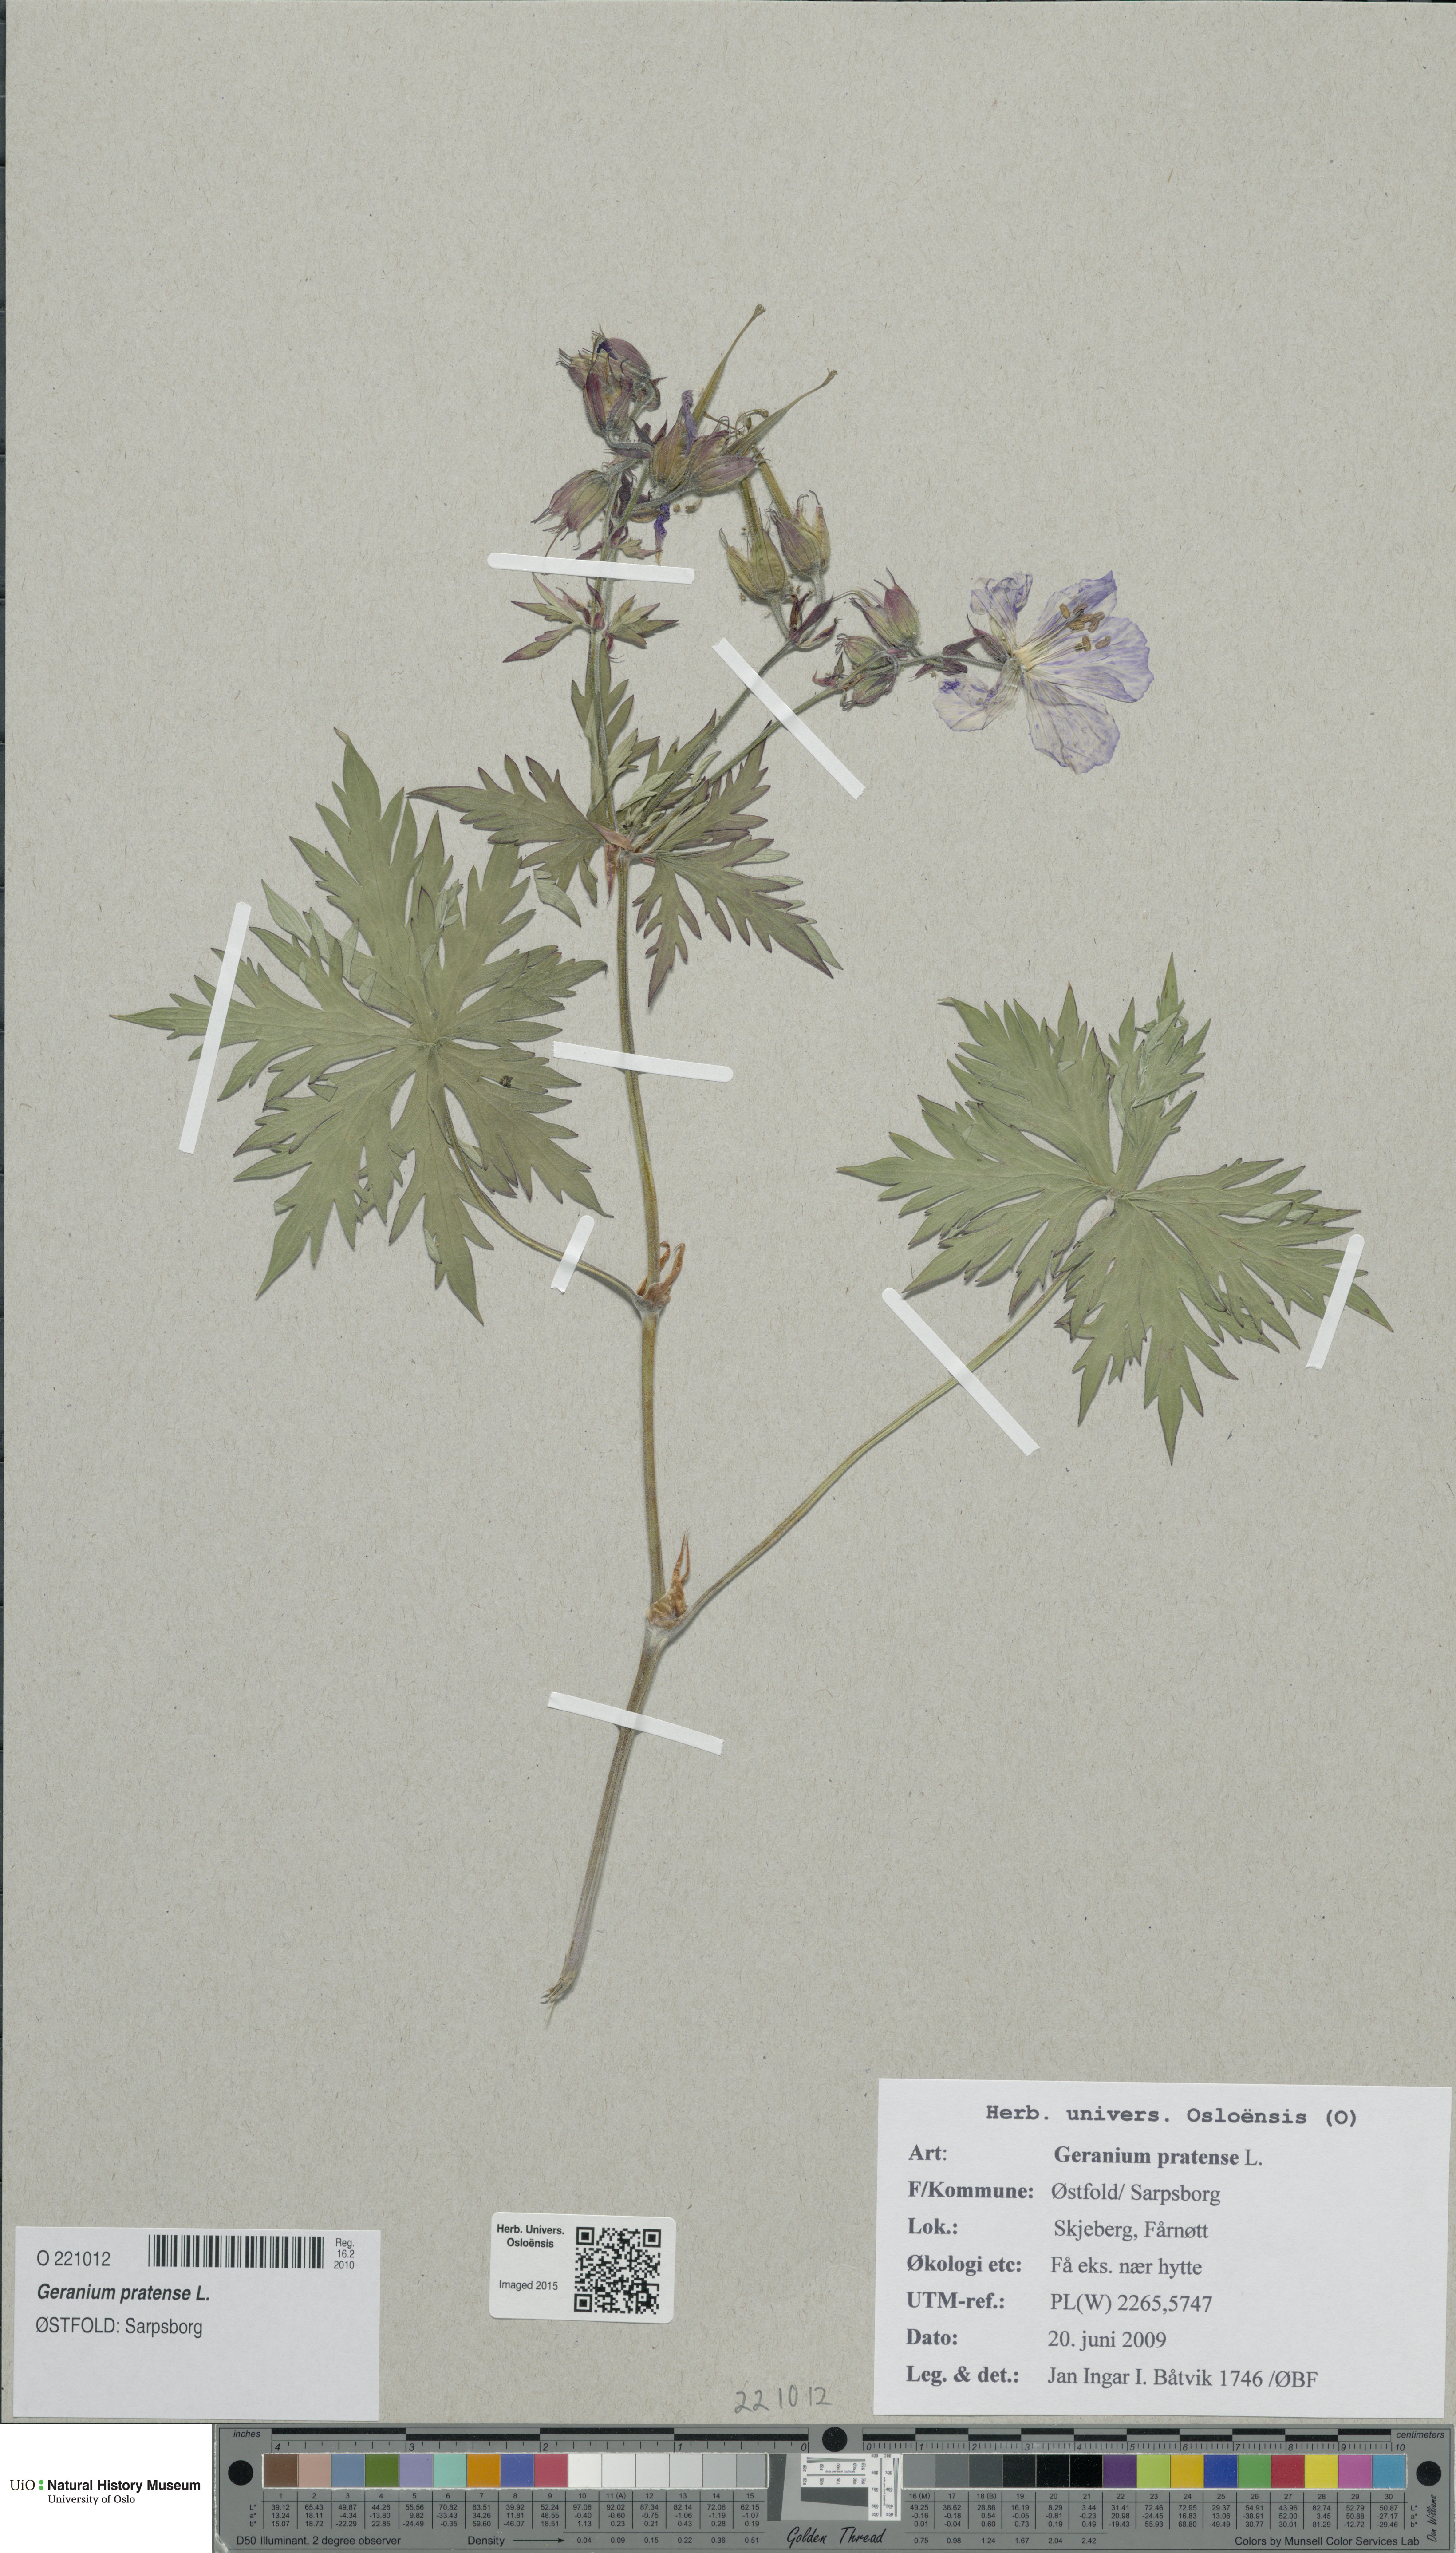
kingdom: Plantae
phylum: Tracheophyta
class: Magnoliopsida
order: Geraniales
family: Geraniaceae
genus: Geranium
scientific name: Geranium pratense
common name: Meadow crane's-bill
